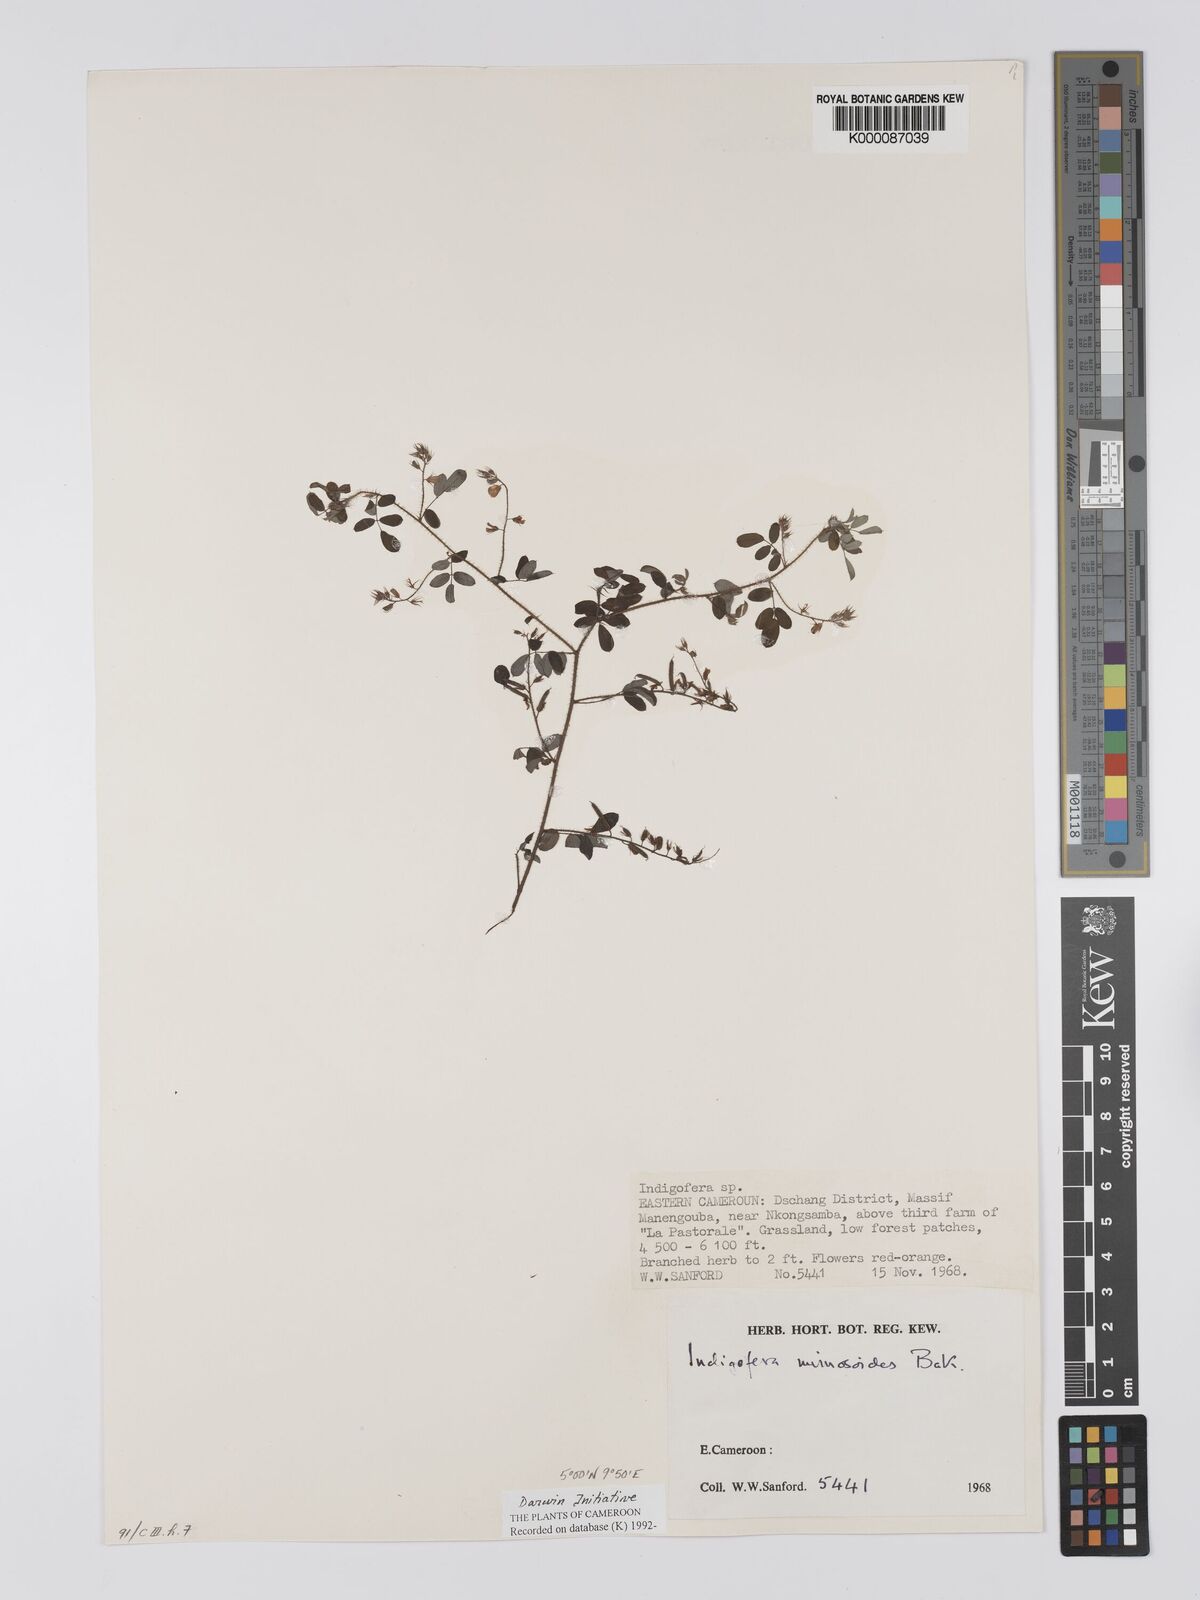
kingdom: Plantae
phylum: Tracheophyta
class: Magnoliopsida
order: Fabales
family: Fabaceae
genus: Indigofera
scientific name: Indigofera mimosoides
